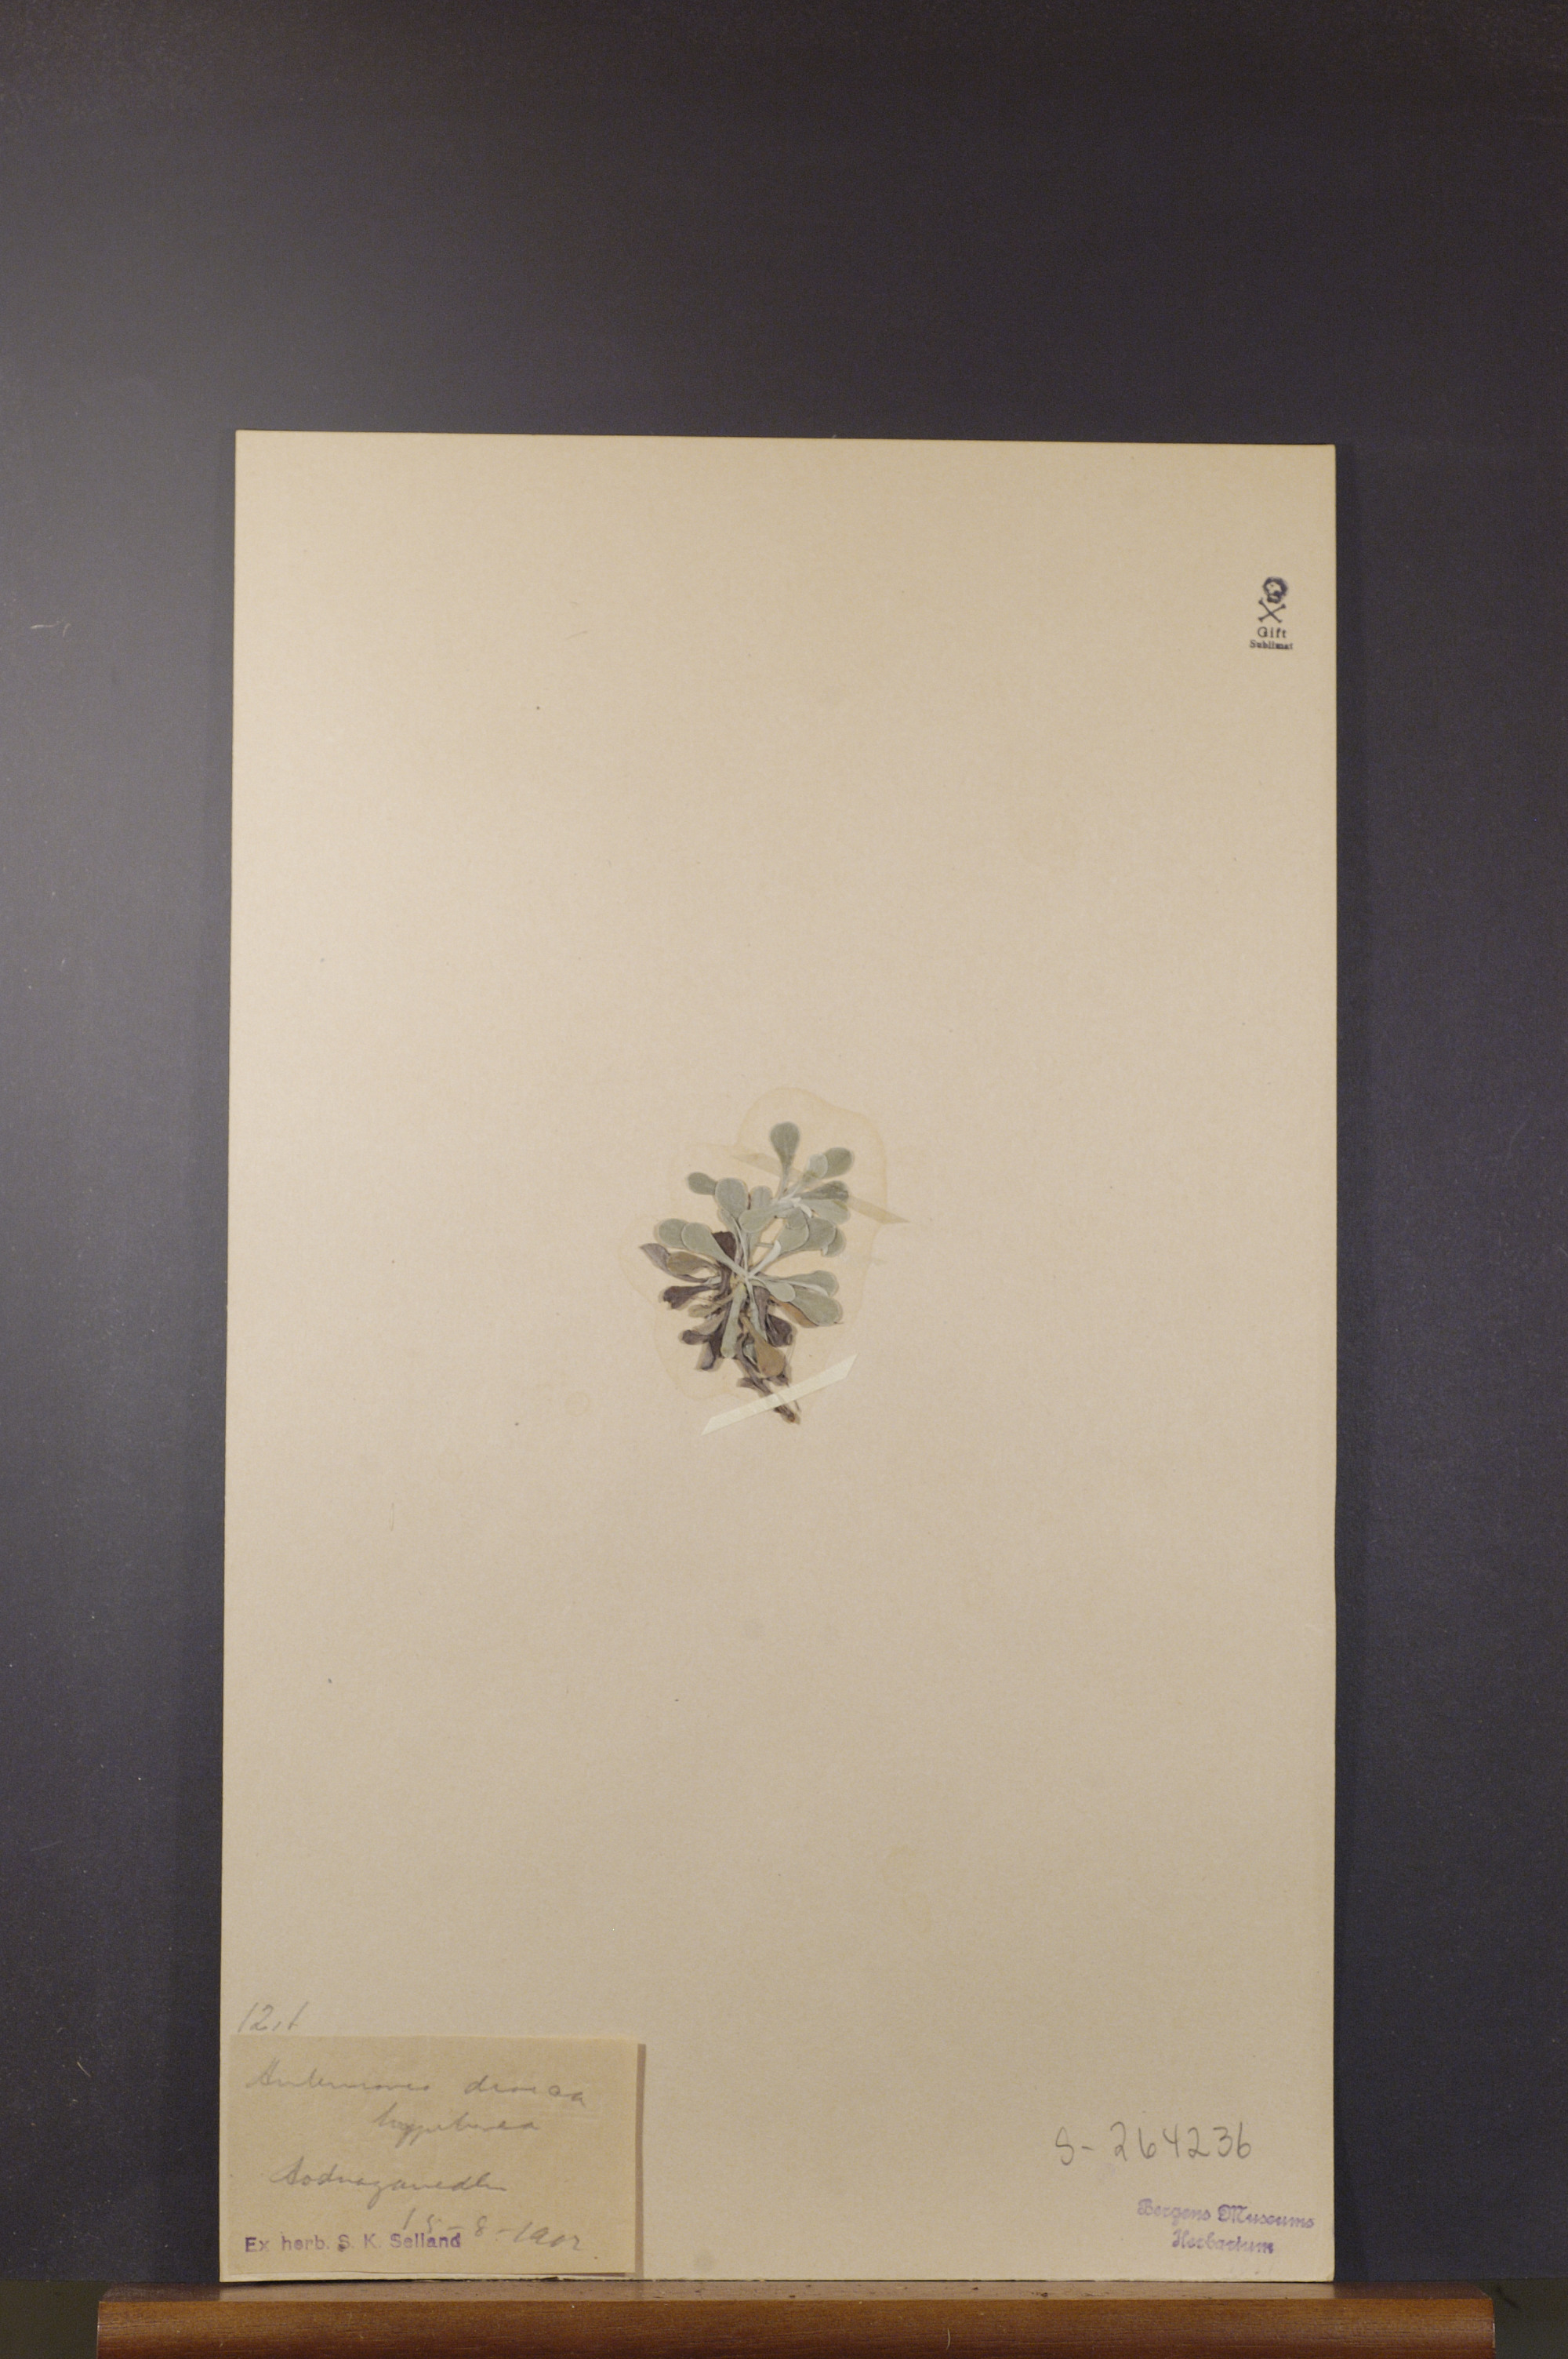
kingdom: Plantae
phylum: Tracheophyta
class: Magnoliopsida
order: Asterales
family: Asteraceae
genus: Antennaria
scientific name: Antennaria dioica
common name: Mountain everlasting
